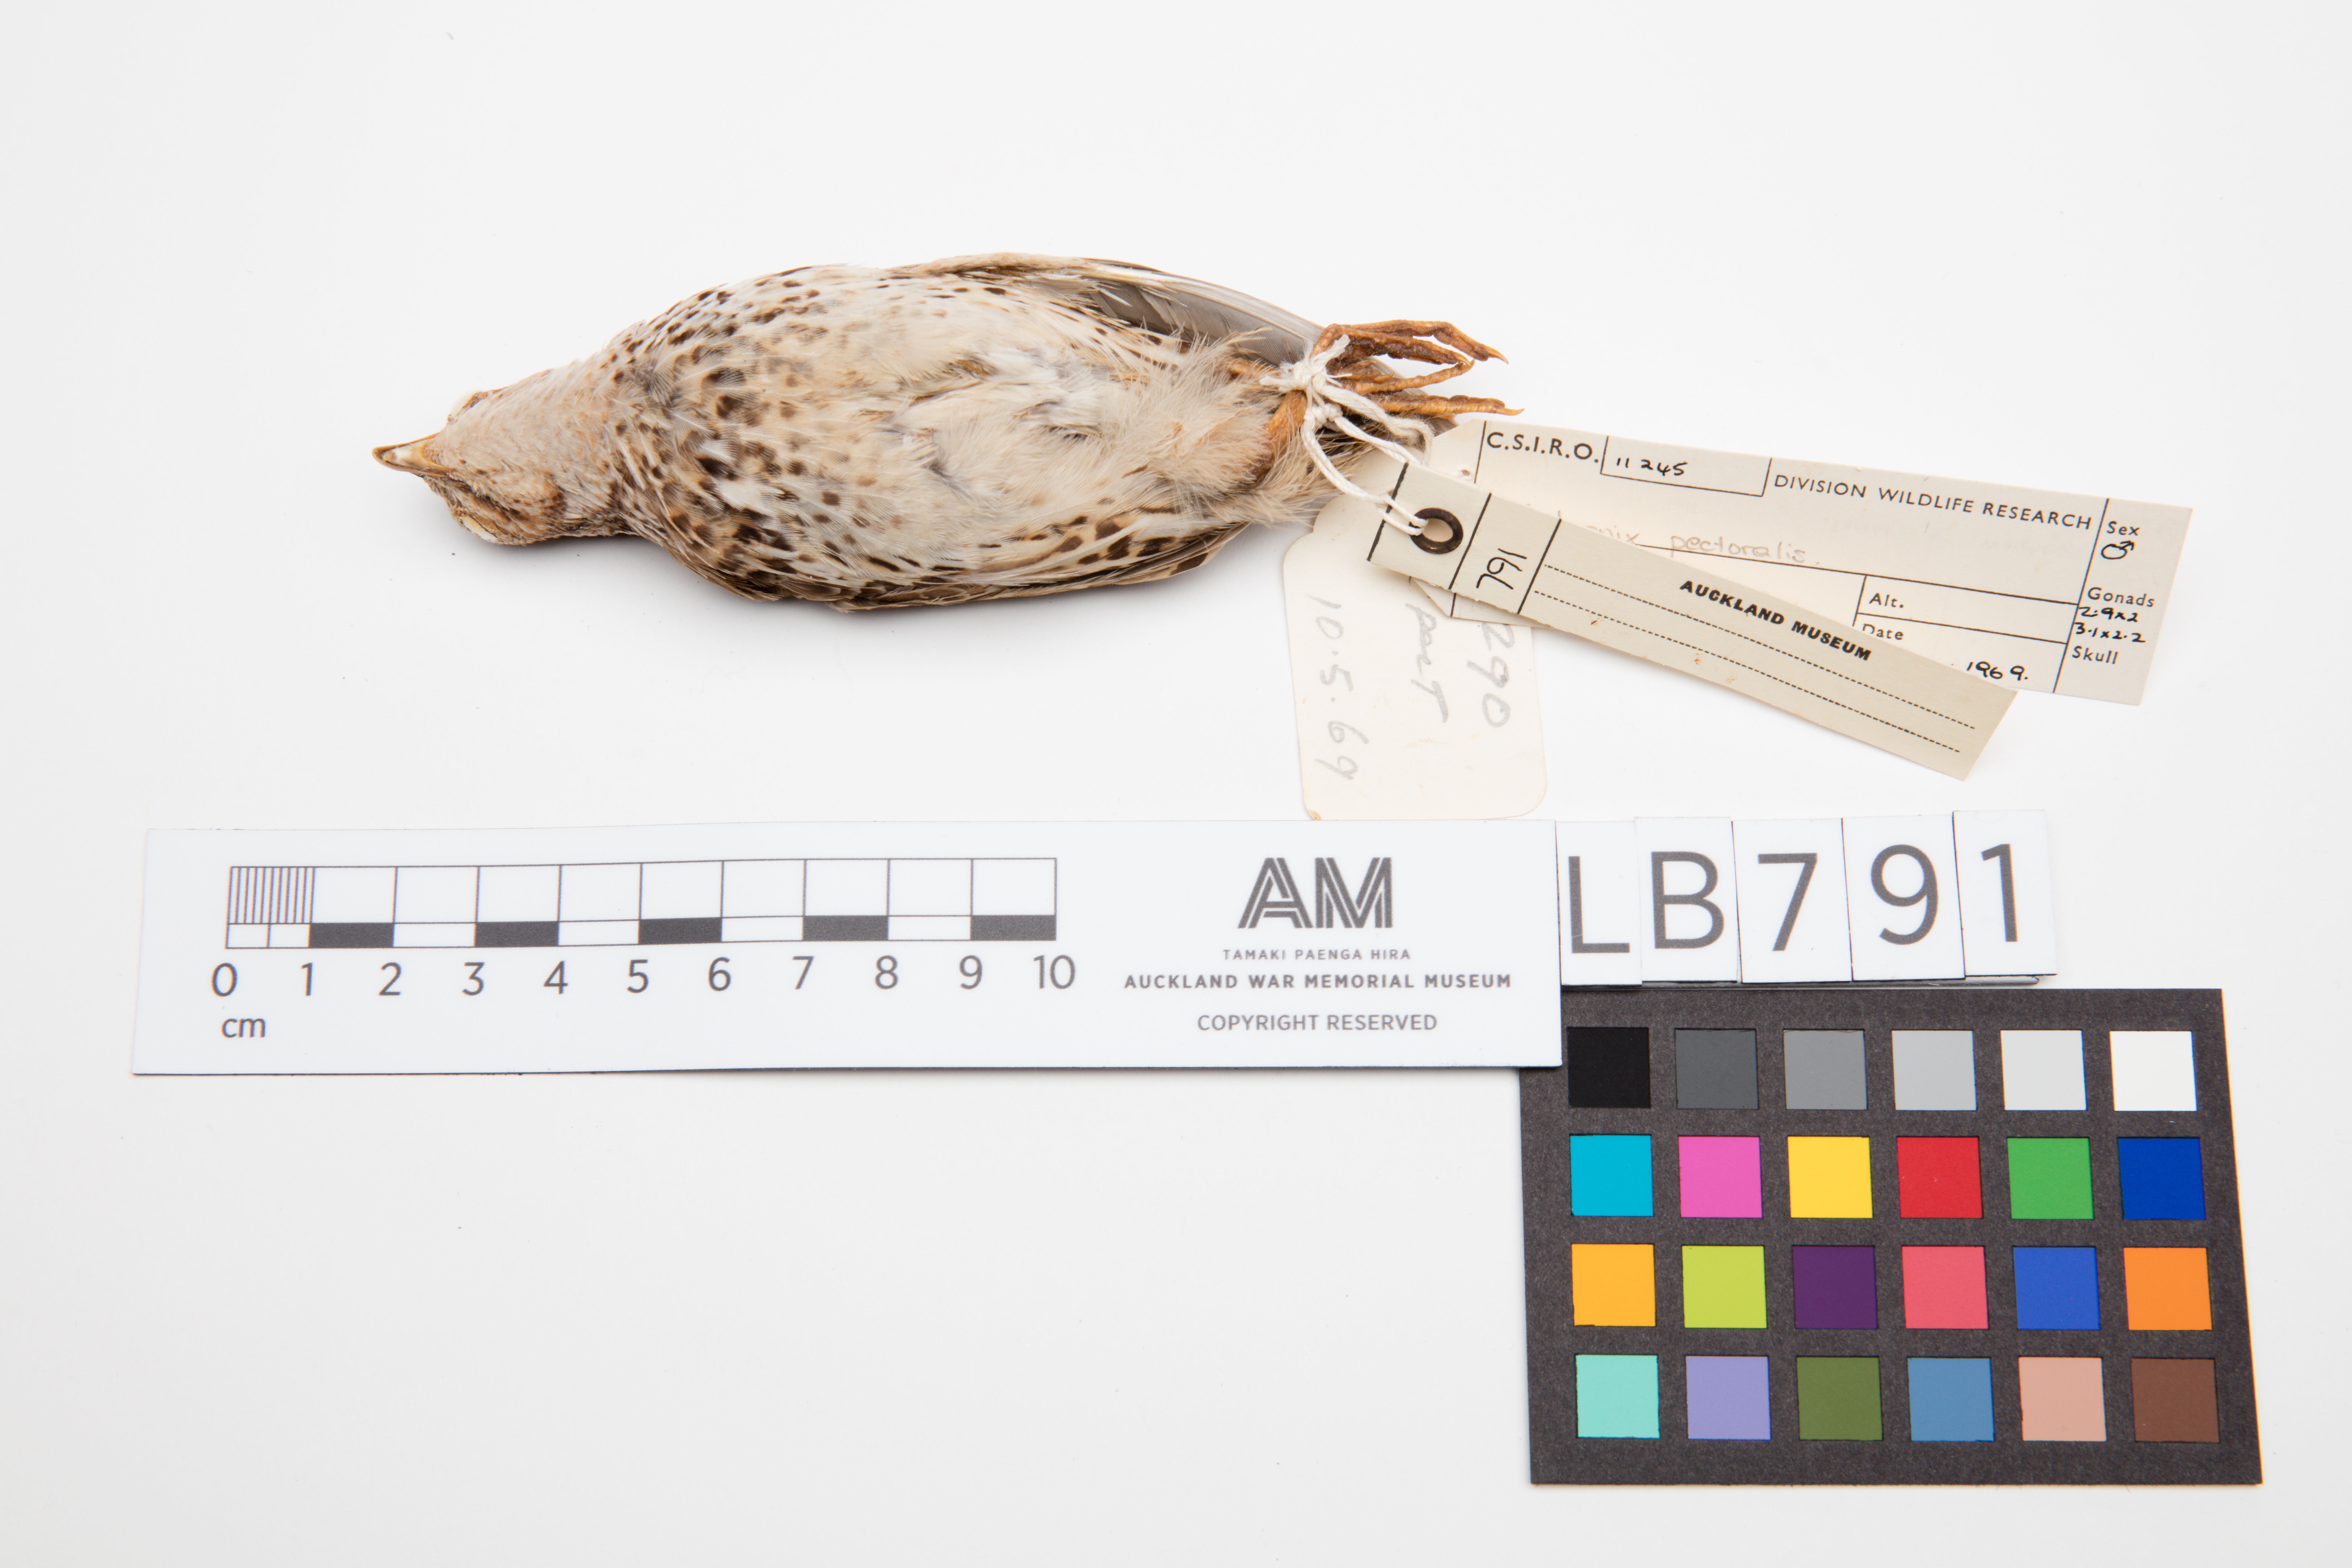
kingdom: Animalia
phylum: Chordata
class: Aves
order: Galliformes
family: Phasianidae
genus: Coturnix
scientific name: Coturnix pectoralis
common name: Stubble quail
